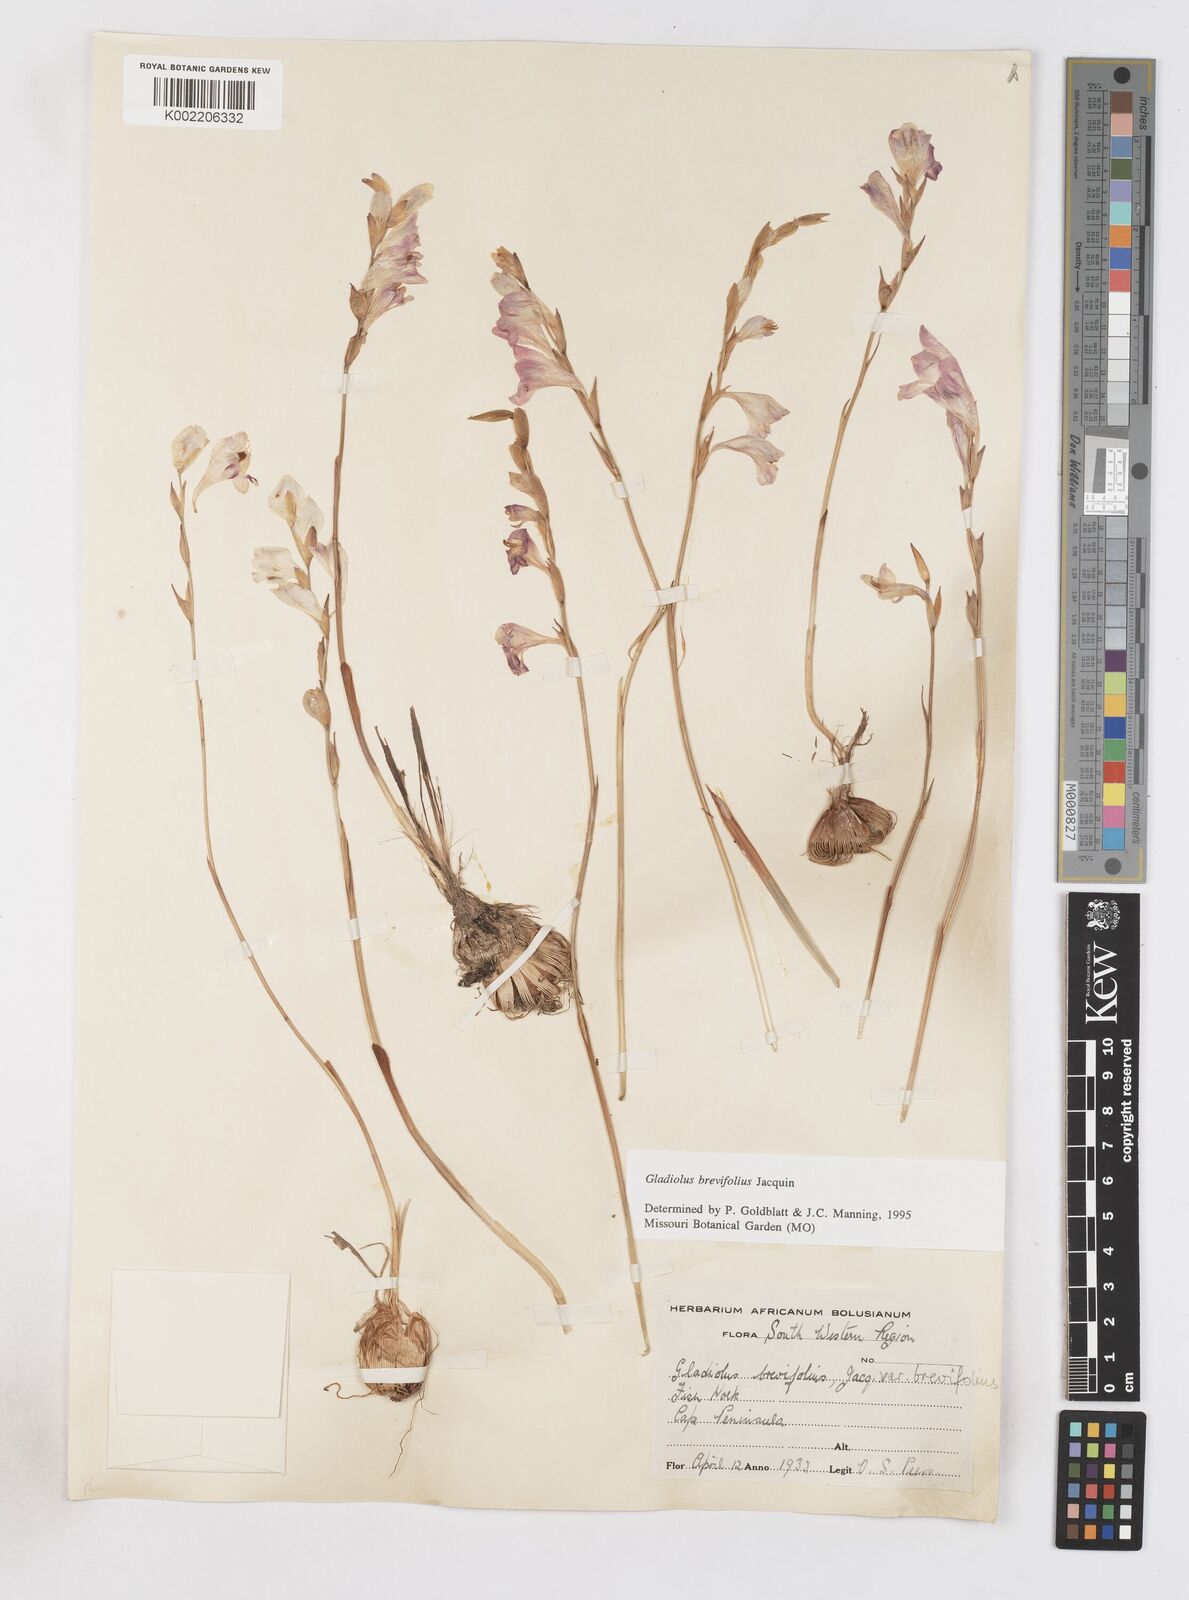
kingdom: Plantae
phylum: Tracheophyta
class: Liliopsida
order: Asparagales
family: Iridaceae
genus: Gladiolus
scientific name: Gladiolus brevifolius
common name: March pypie
